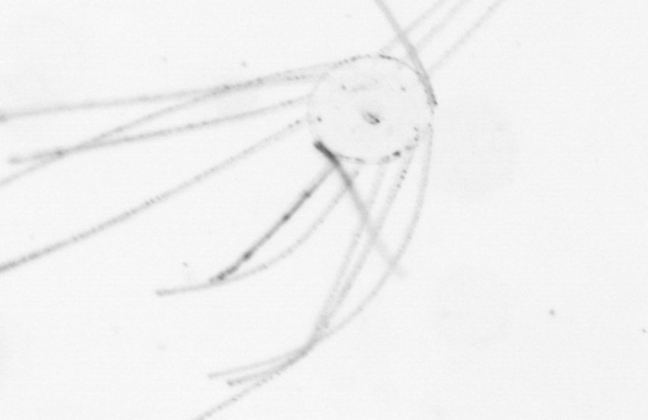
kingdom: Animalia
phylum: Cnidaria
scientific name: Cnidaria
